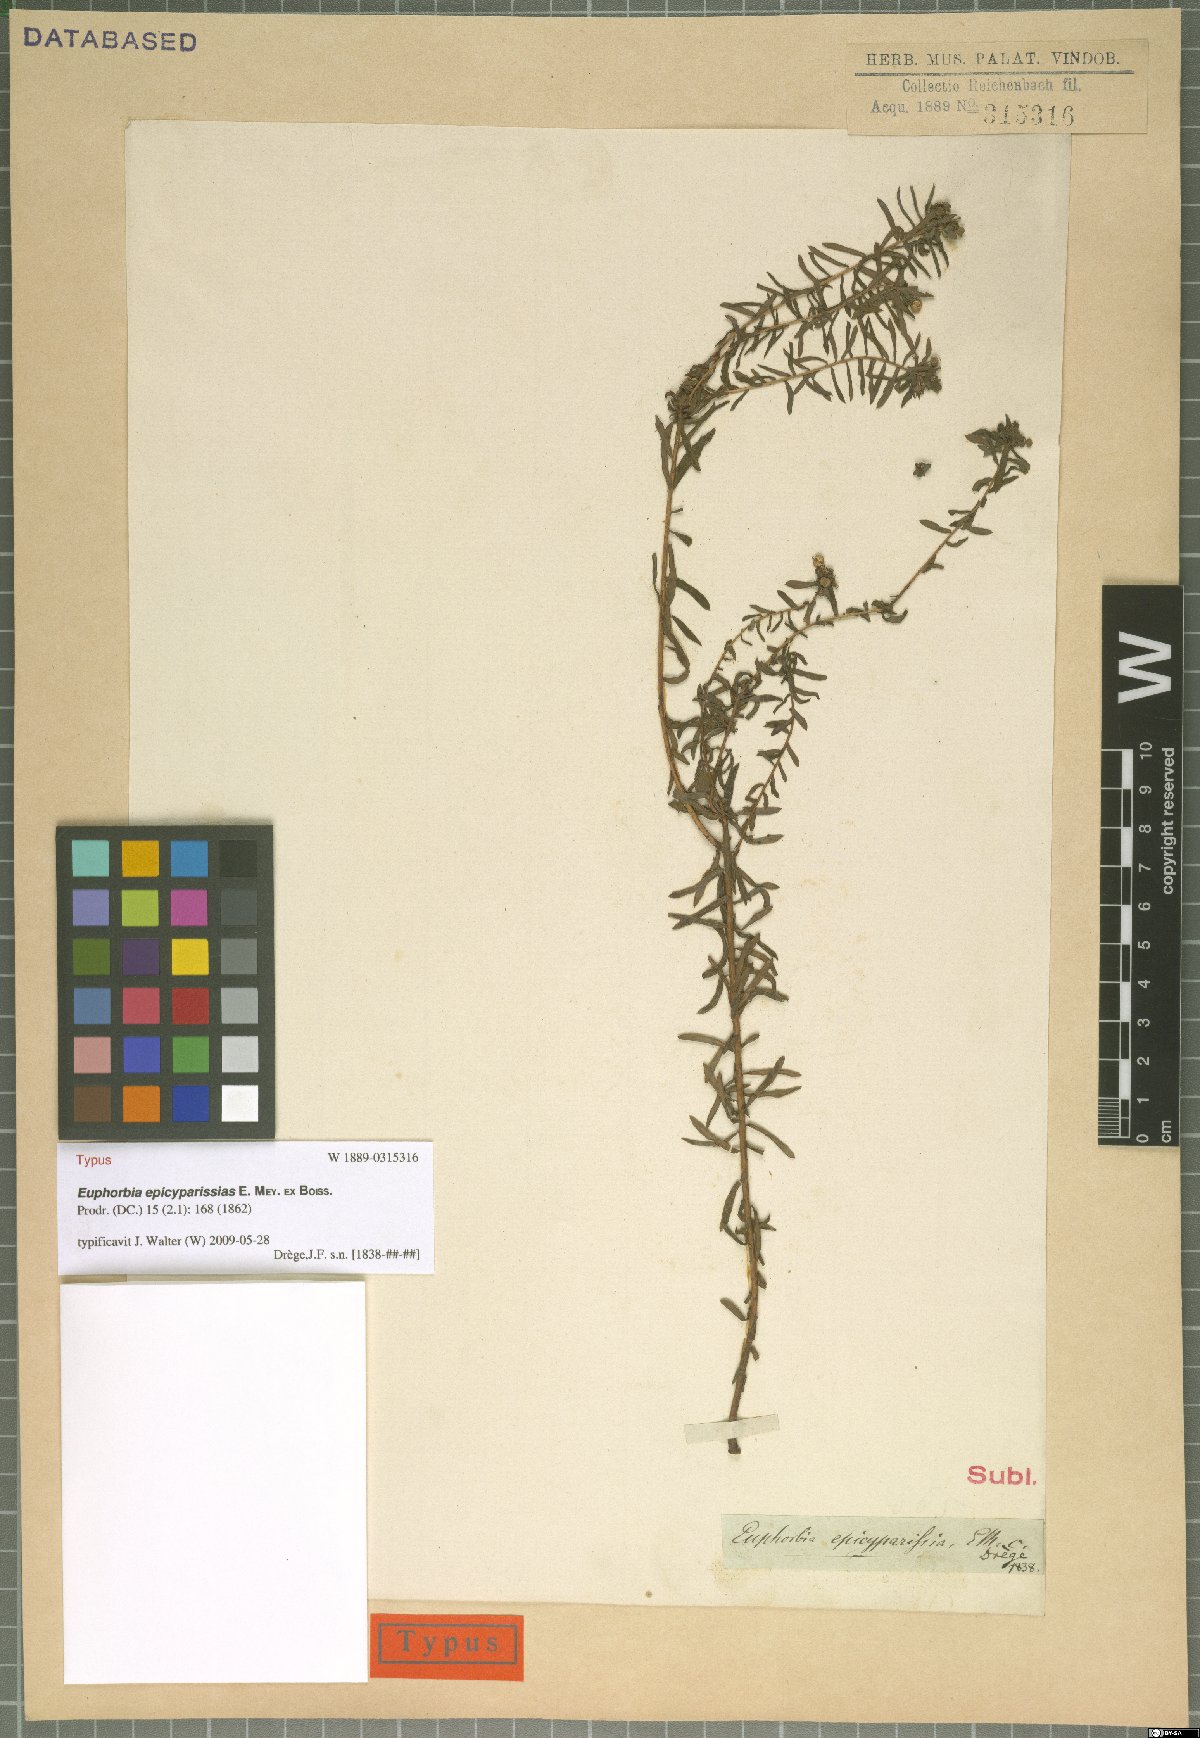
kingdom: Plantae
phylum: Tracheophyta
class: Magnoliopsida
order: Malpighiales
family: Euphorbiaceae
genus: Euphorbia
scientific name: Euphorbia natalensis
